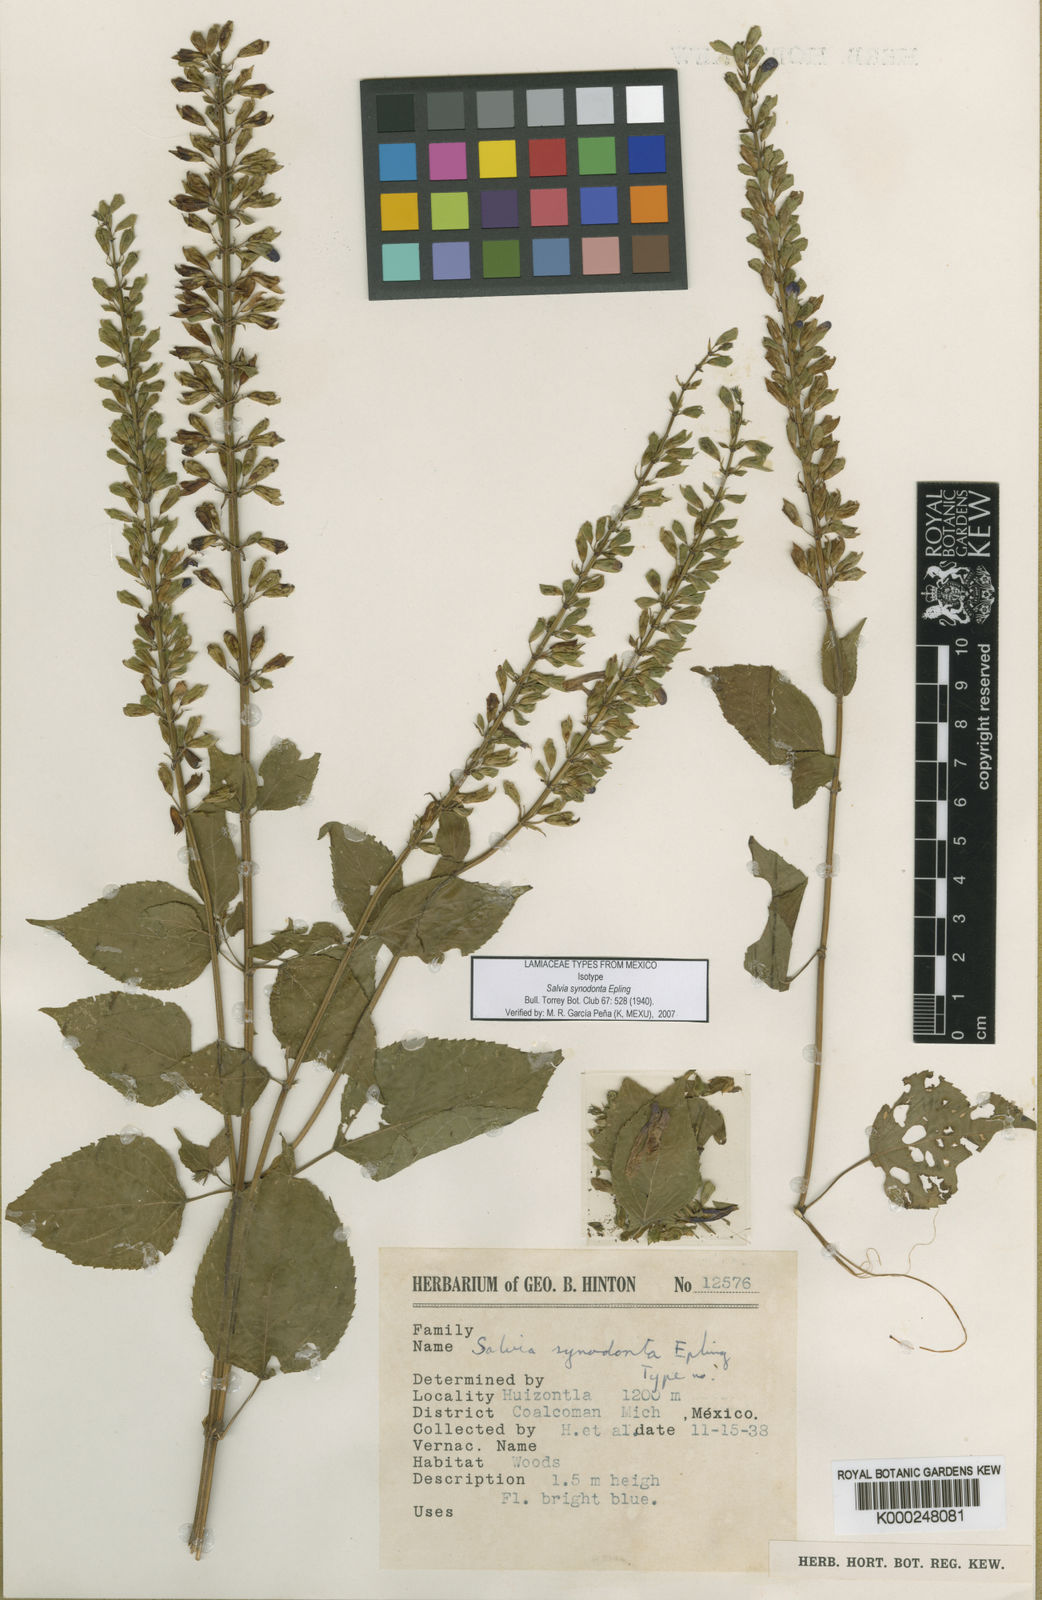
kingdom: Plantae
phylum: Tracheophyta
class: Magnoliopsida
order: Lamiales
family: Lamiaceae
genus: Salvia
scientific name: Salvia synodonta
